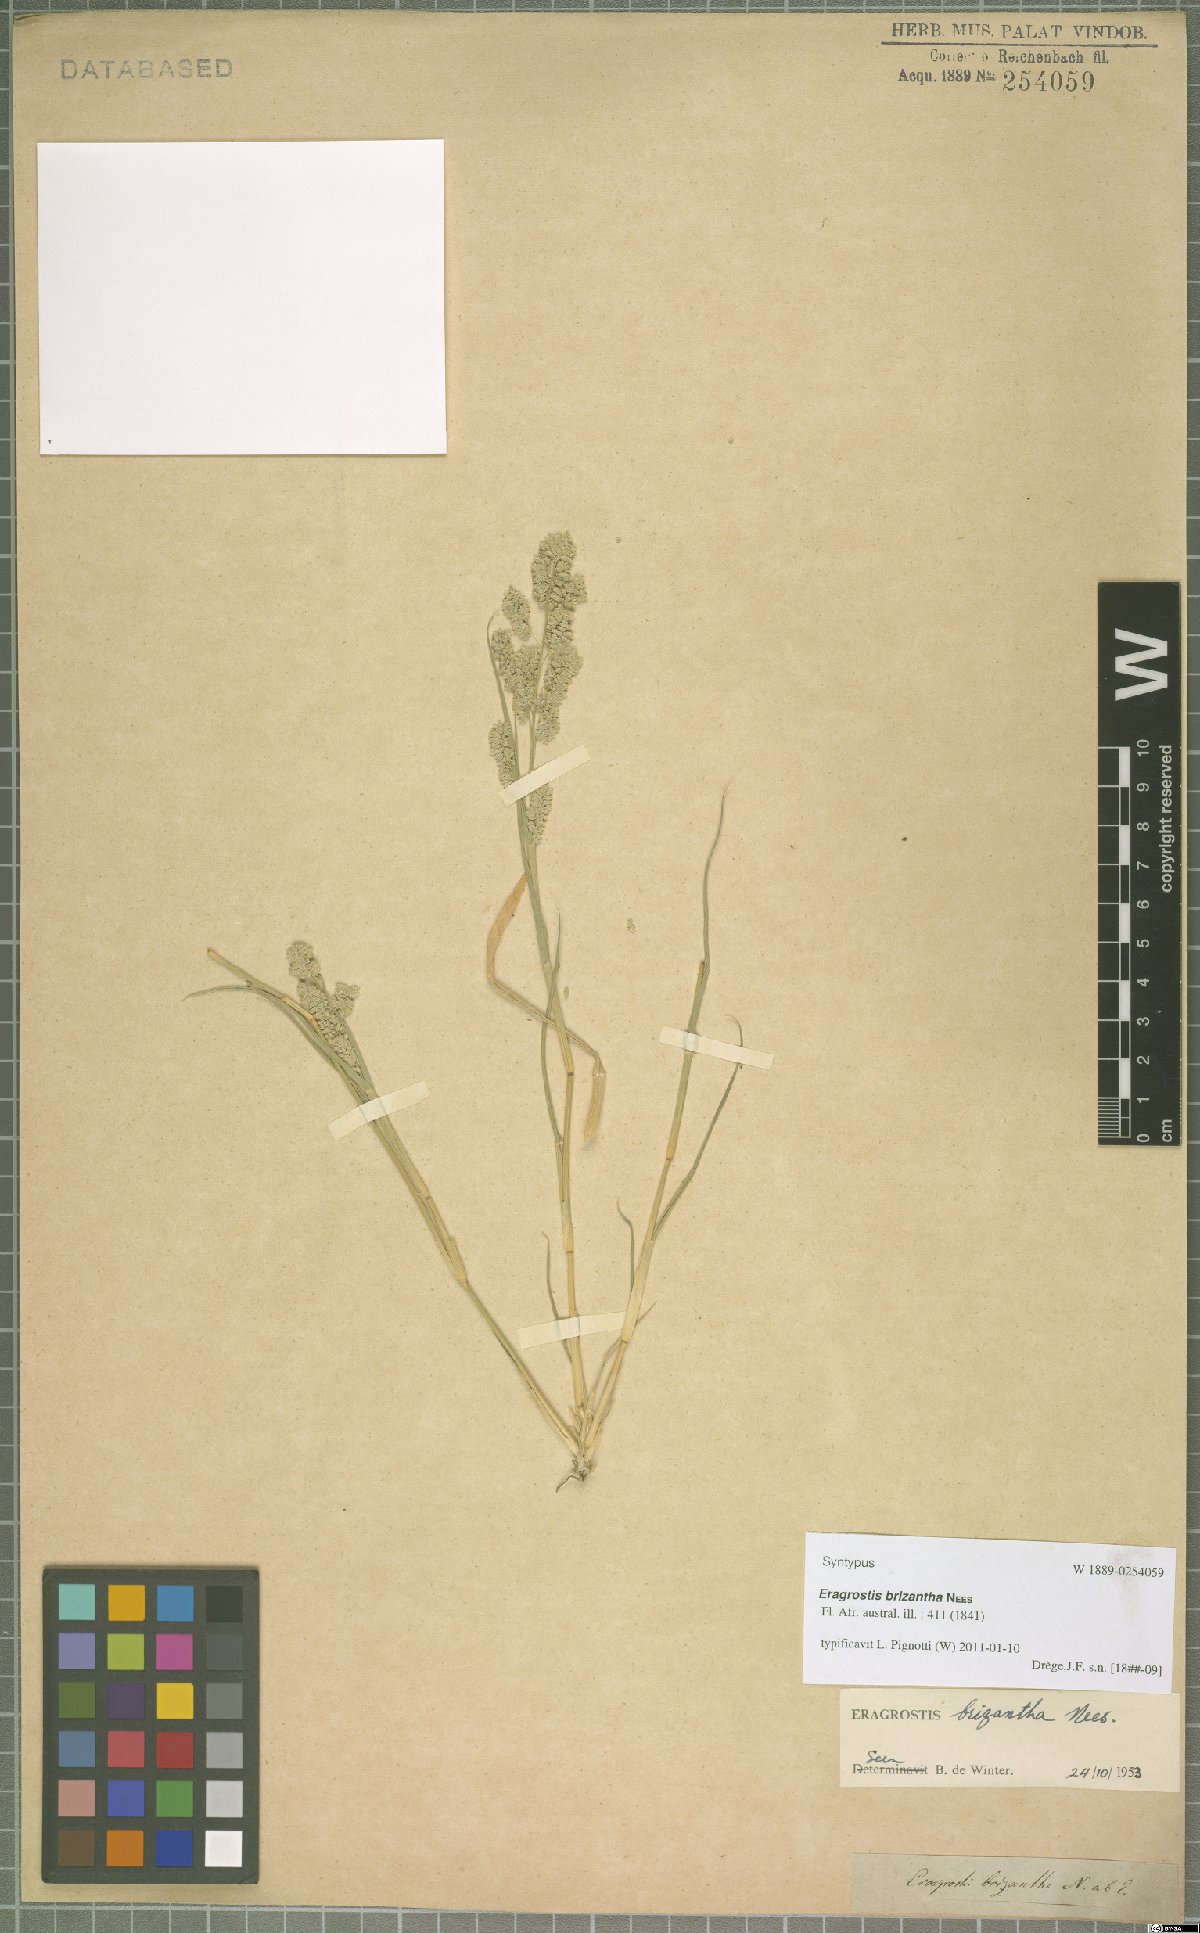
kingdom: Plantae
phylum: Tracheophyta
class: Liliopsida
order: Poales
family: Poaceae
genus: Eragrostis
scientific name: Eragrostis brizantha
